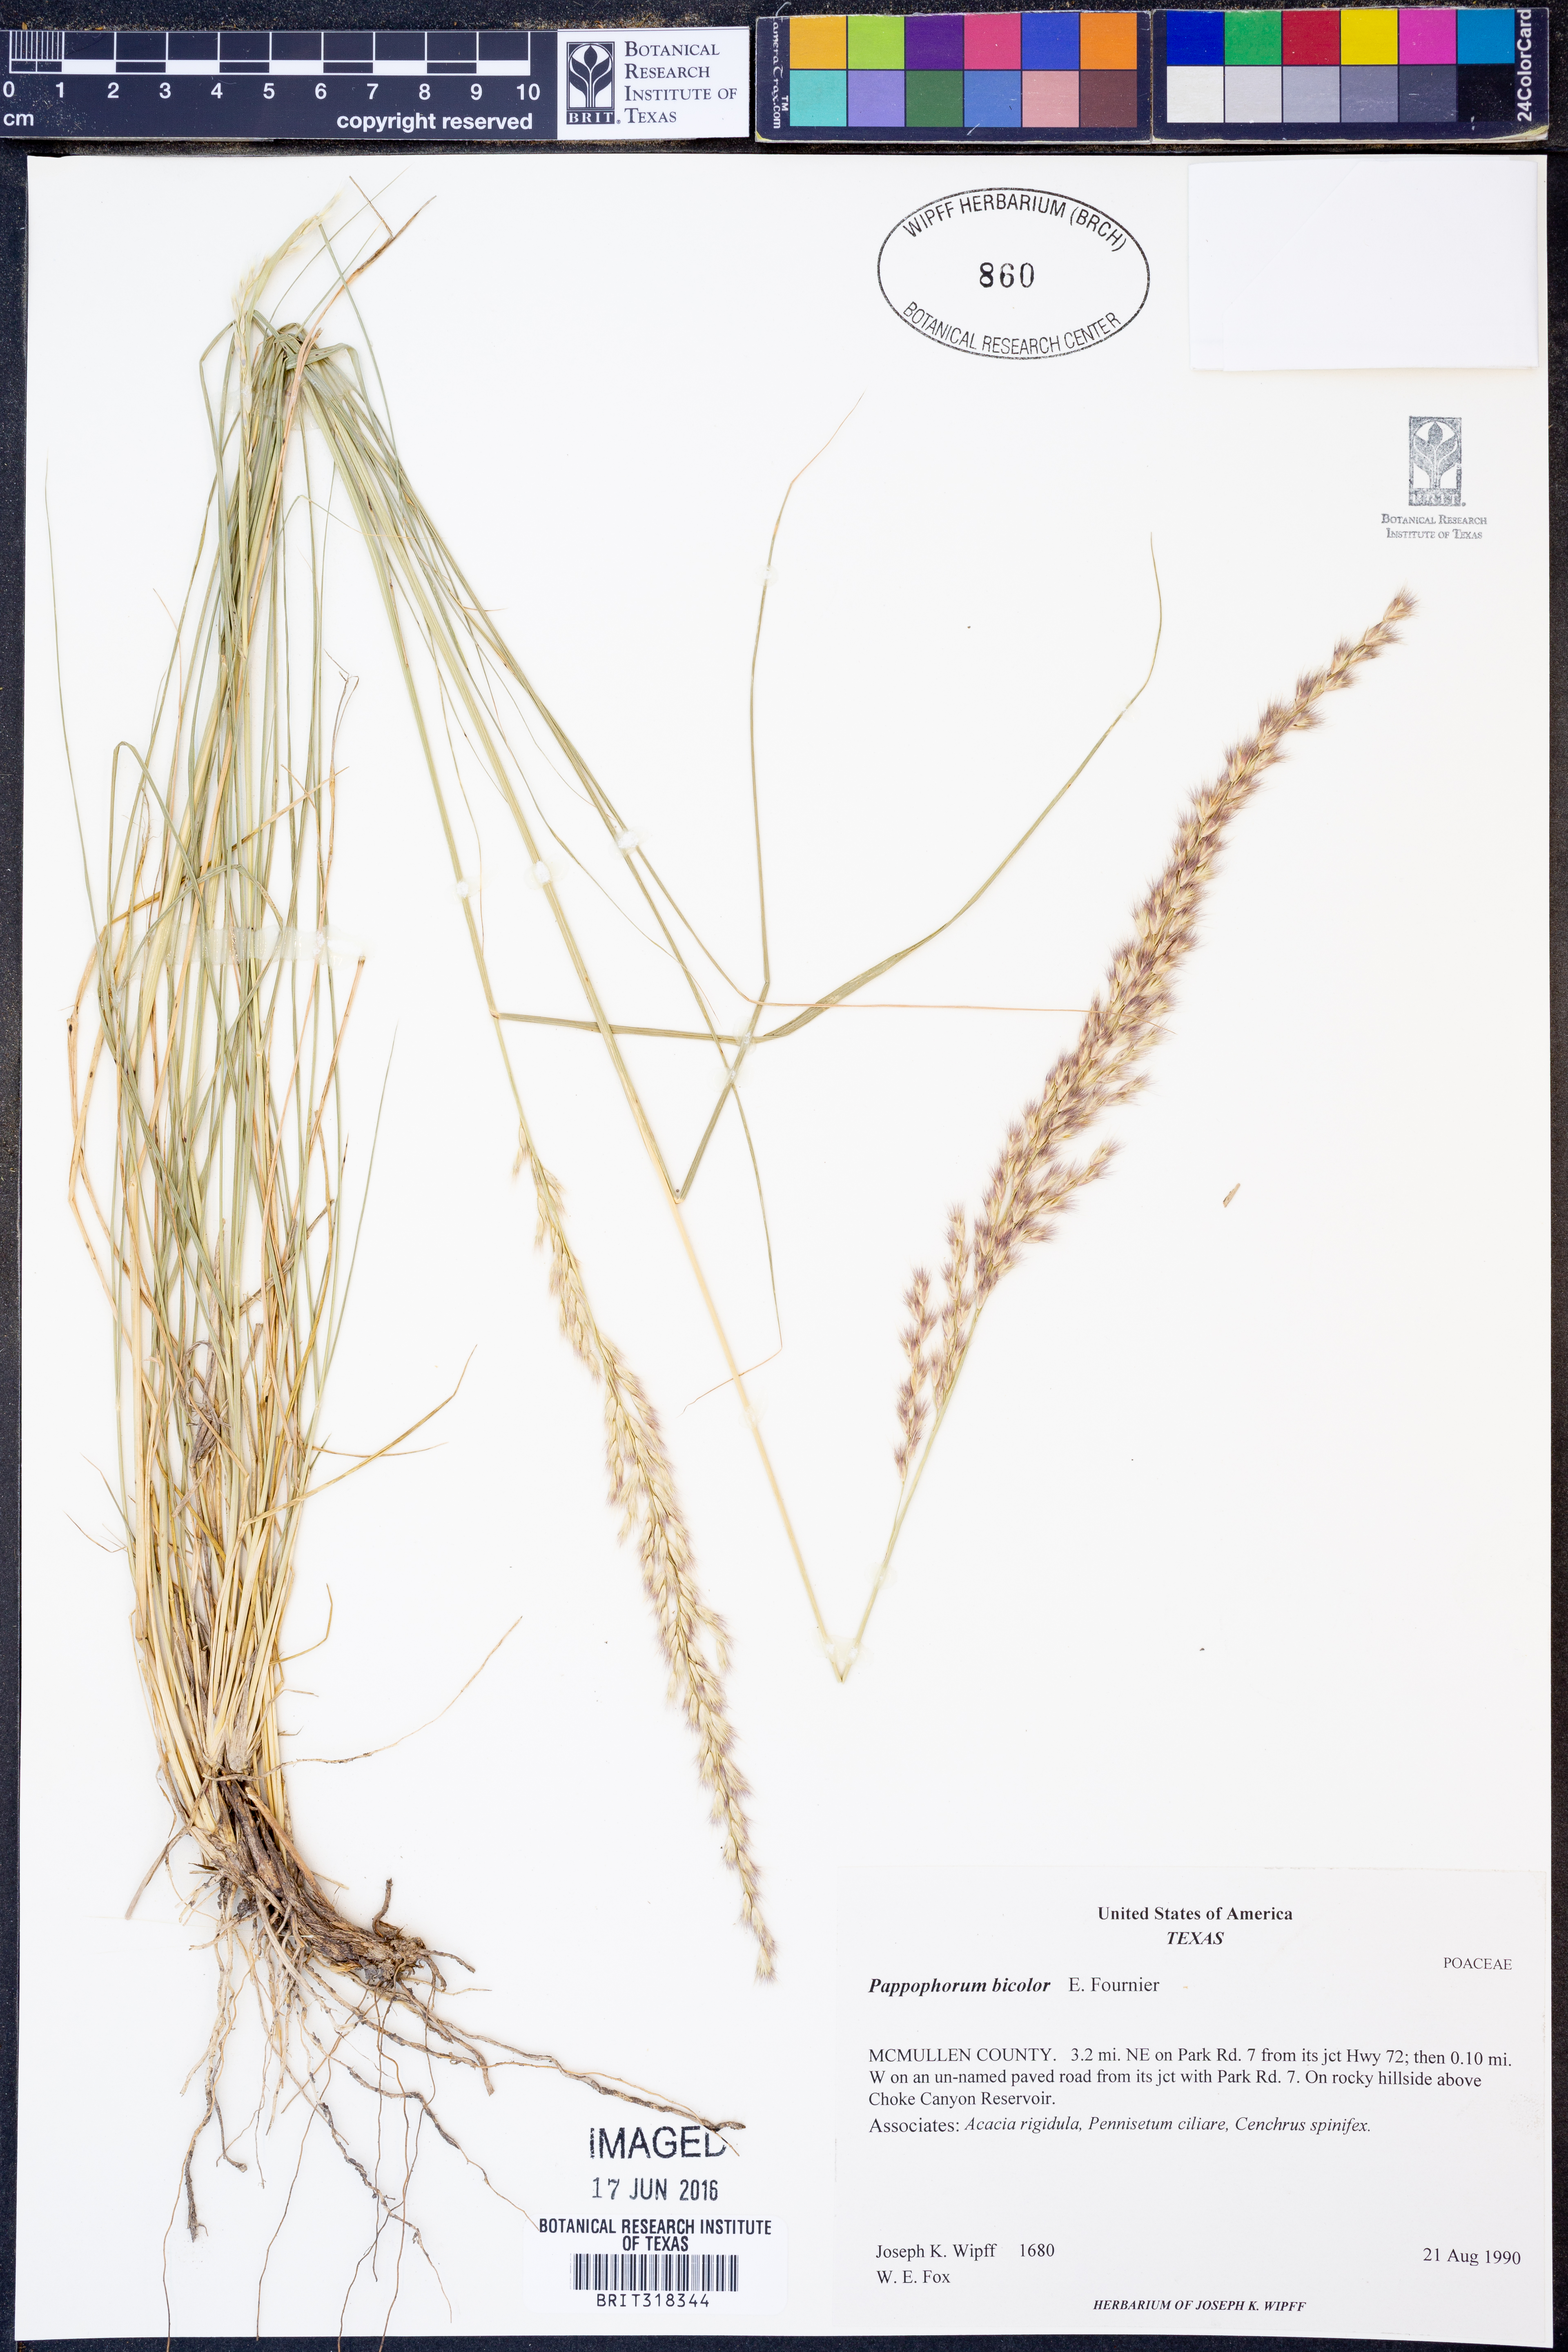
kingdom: Plantae
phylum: Tracheophyta
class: Liliopsida
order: Poales
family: Poaceae
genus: Pappophorum
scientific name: Pappophorum bicolor
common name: Pink pappus grass
